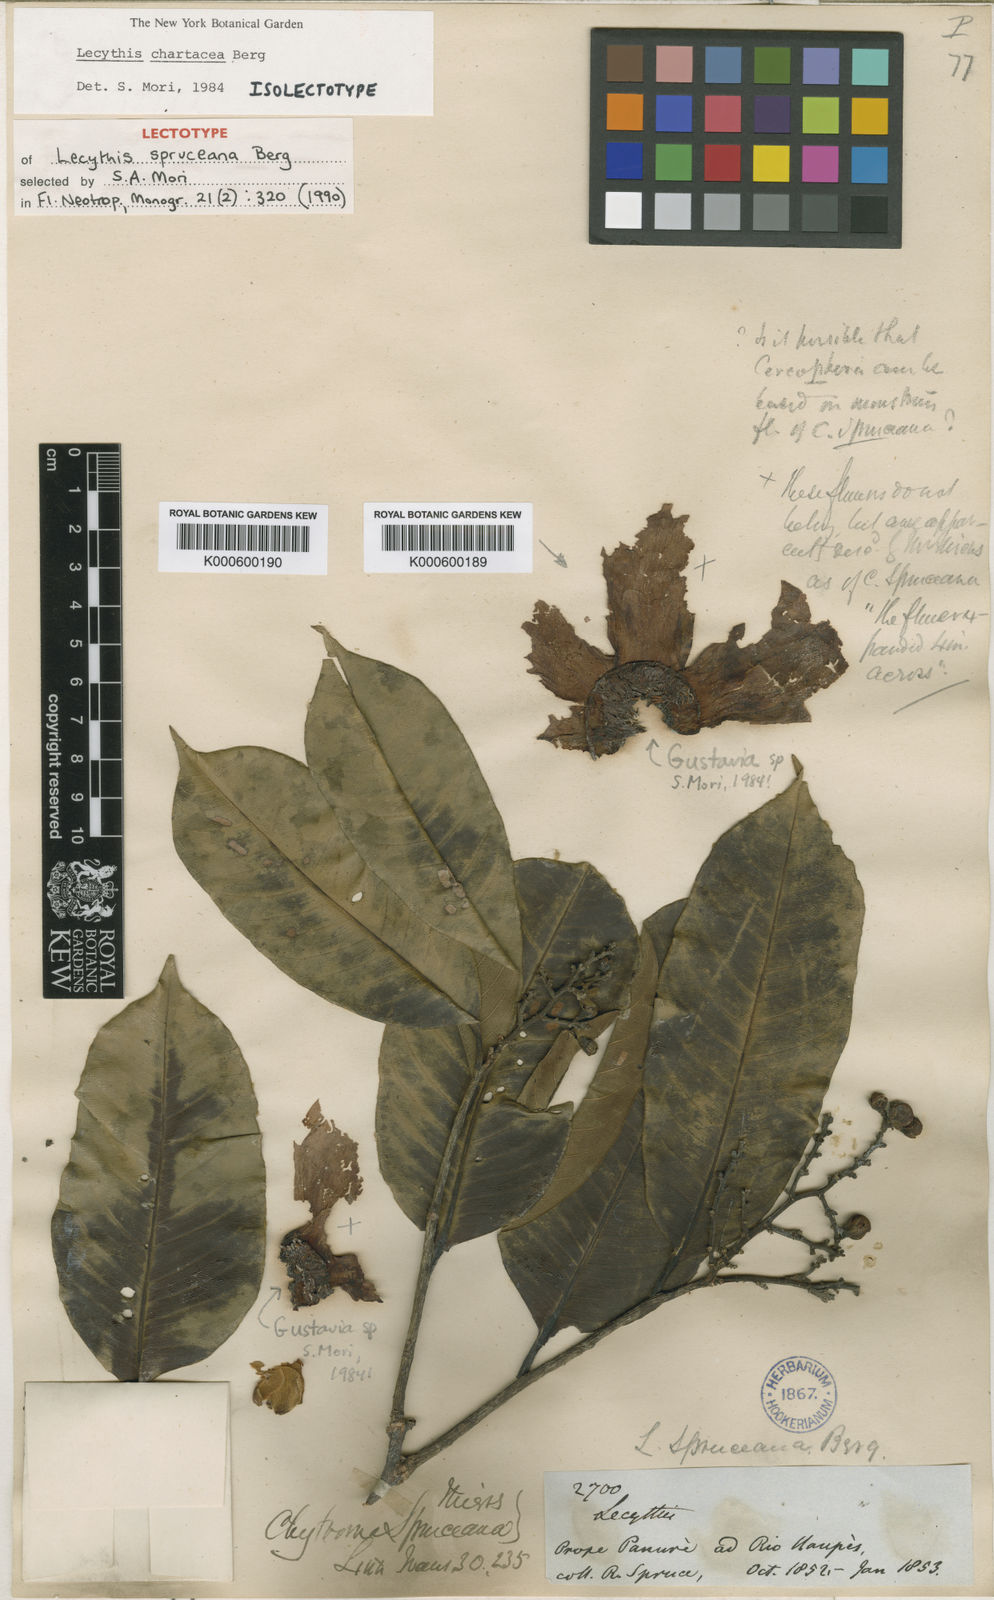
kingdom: Plantae
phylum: Tracheophyta
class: Magnoliopsida
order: Ericales
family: Lecythidaceae
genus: Lecythis
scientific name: Lecythis chartacea
